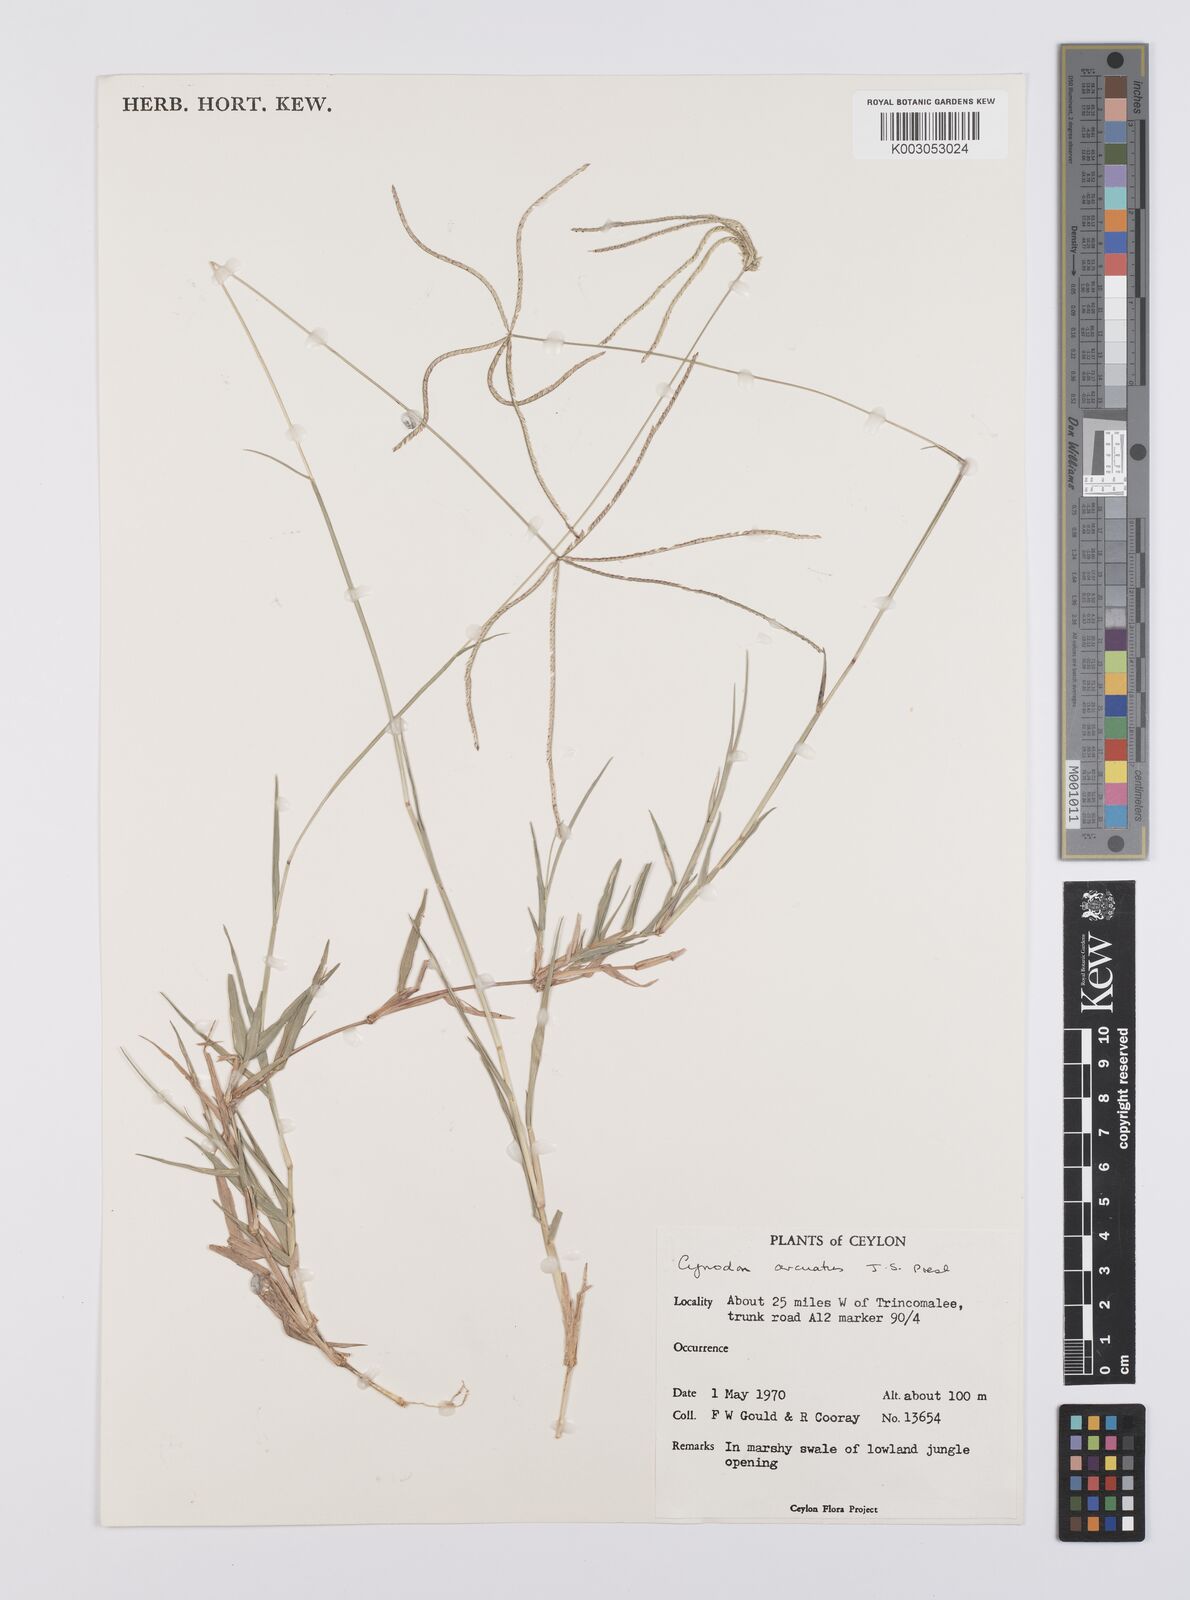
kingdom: Plantae
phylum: Tracheophyta
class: Liliopsida
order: Poales
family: Poaceae
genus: Cynodon
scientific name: Cynodon radiatus
